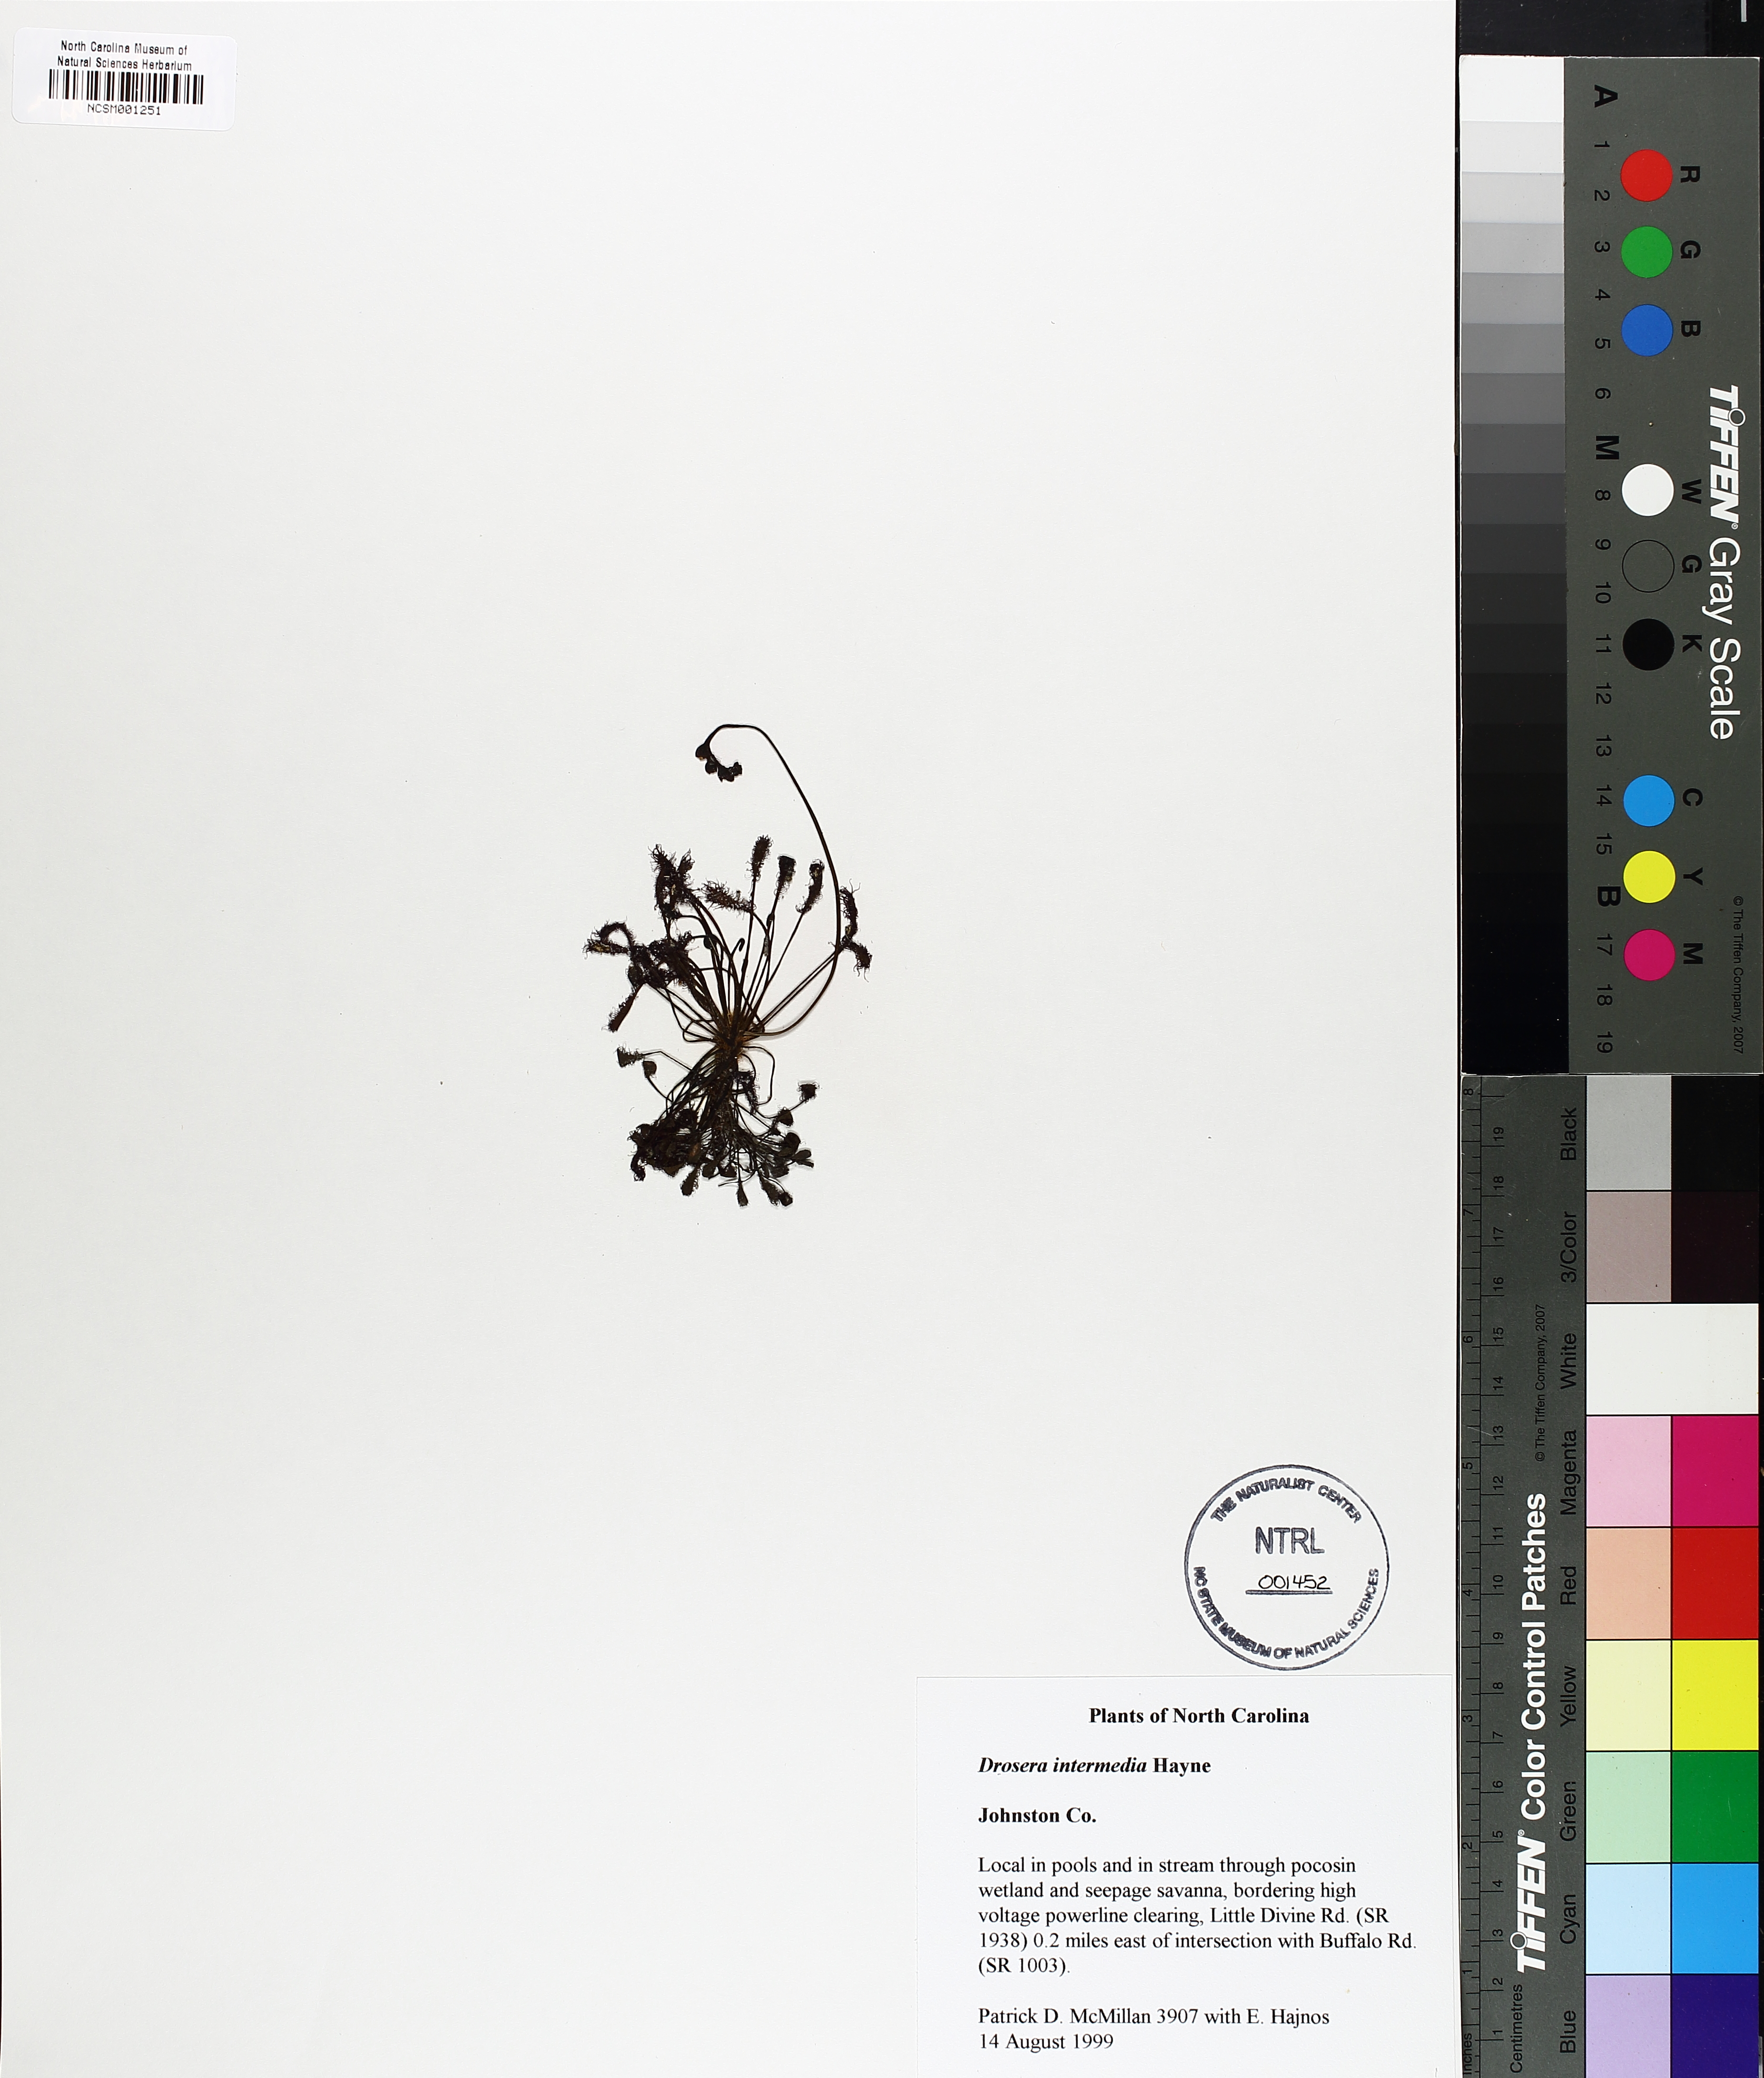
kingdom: Plantae
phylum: Tracheophyta
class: Magnoliopsida
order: Caryophyllales
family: Droseraceae
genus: Drosera
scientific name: Drosera intermedia
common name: Oblong-leaved sundew
